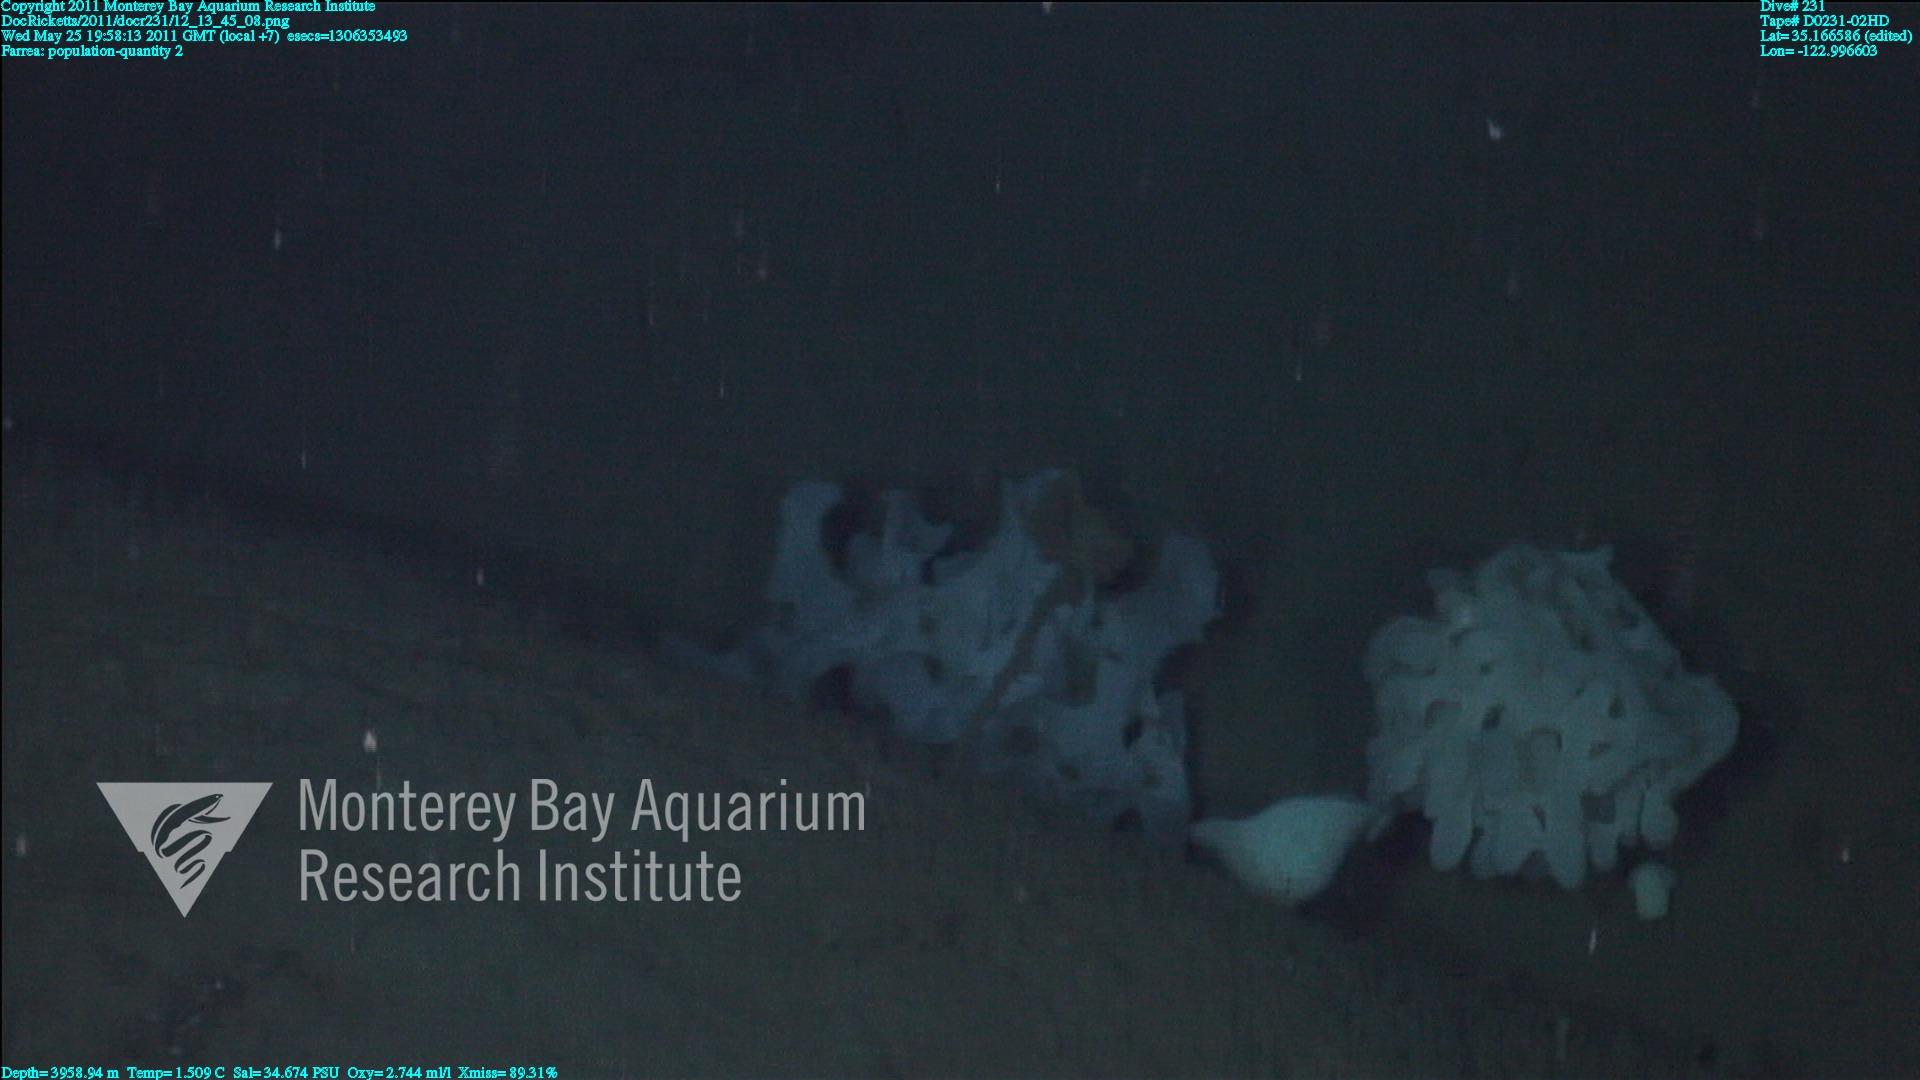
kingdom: Animalia
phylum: Porifera
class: Hexactinellida
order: Sceptrulophora
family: Farreidae
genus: Farrea
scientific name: Farrea
